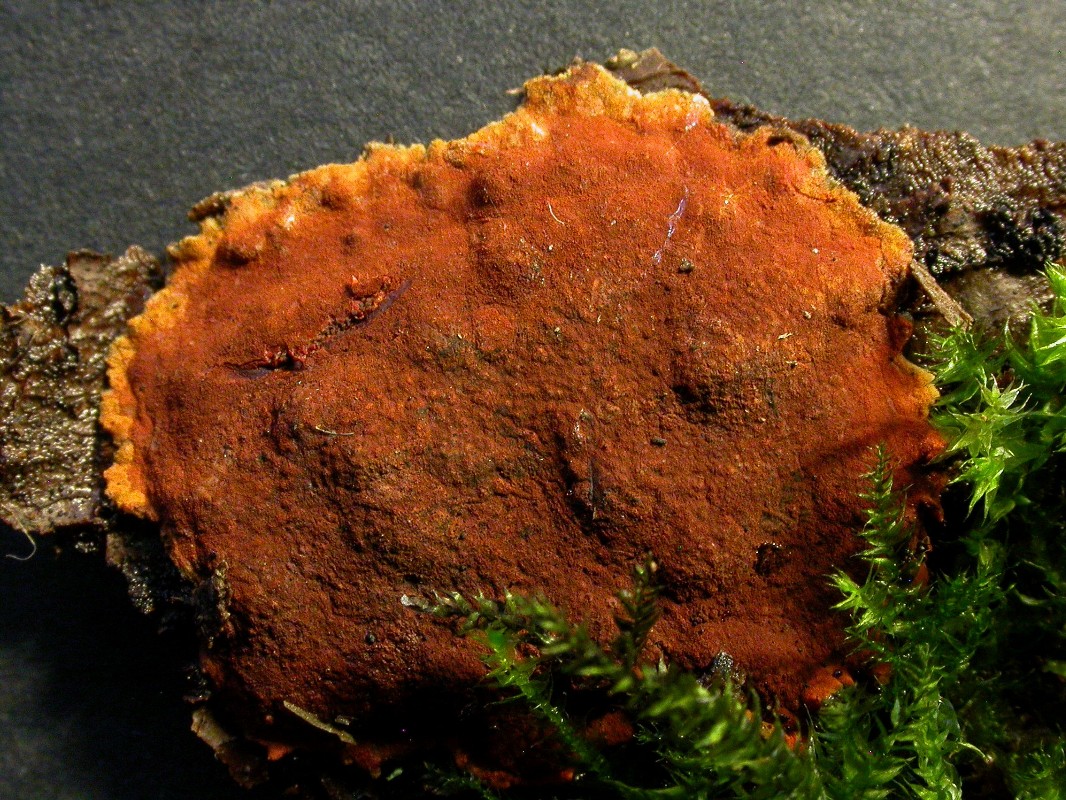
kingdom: Fungi
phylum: Ascomycota
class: Sordariomycetes
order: Xylariales
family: Hypoxylaceae
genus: Hypoxylon
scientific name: Hypoxylon subticinense
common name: filtet kulbær
